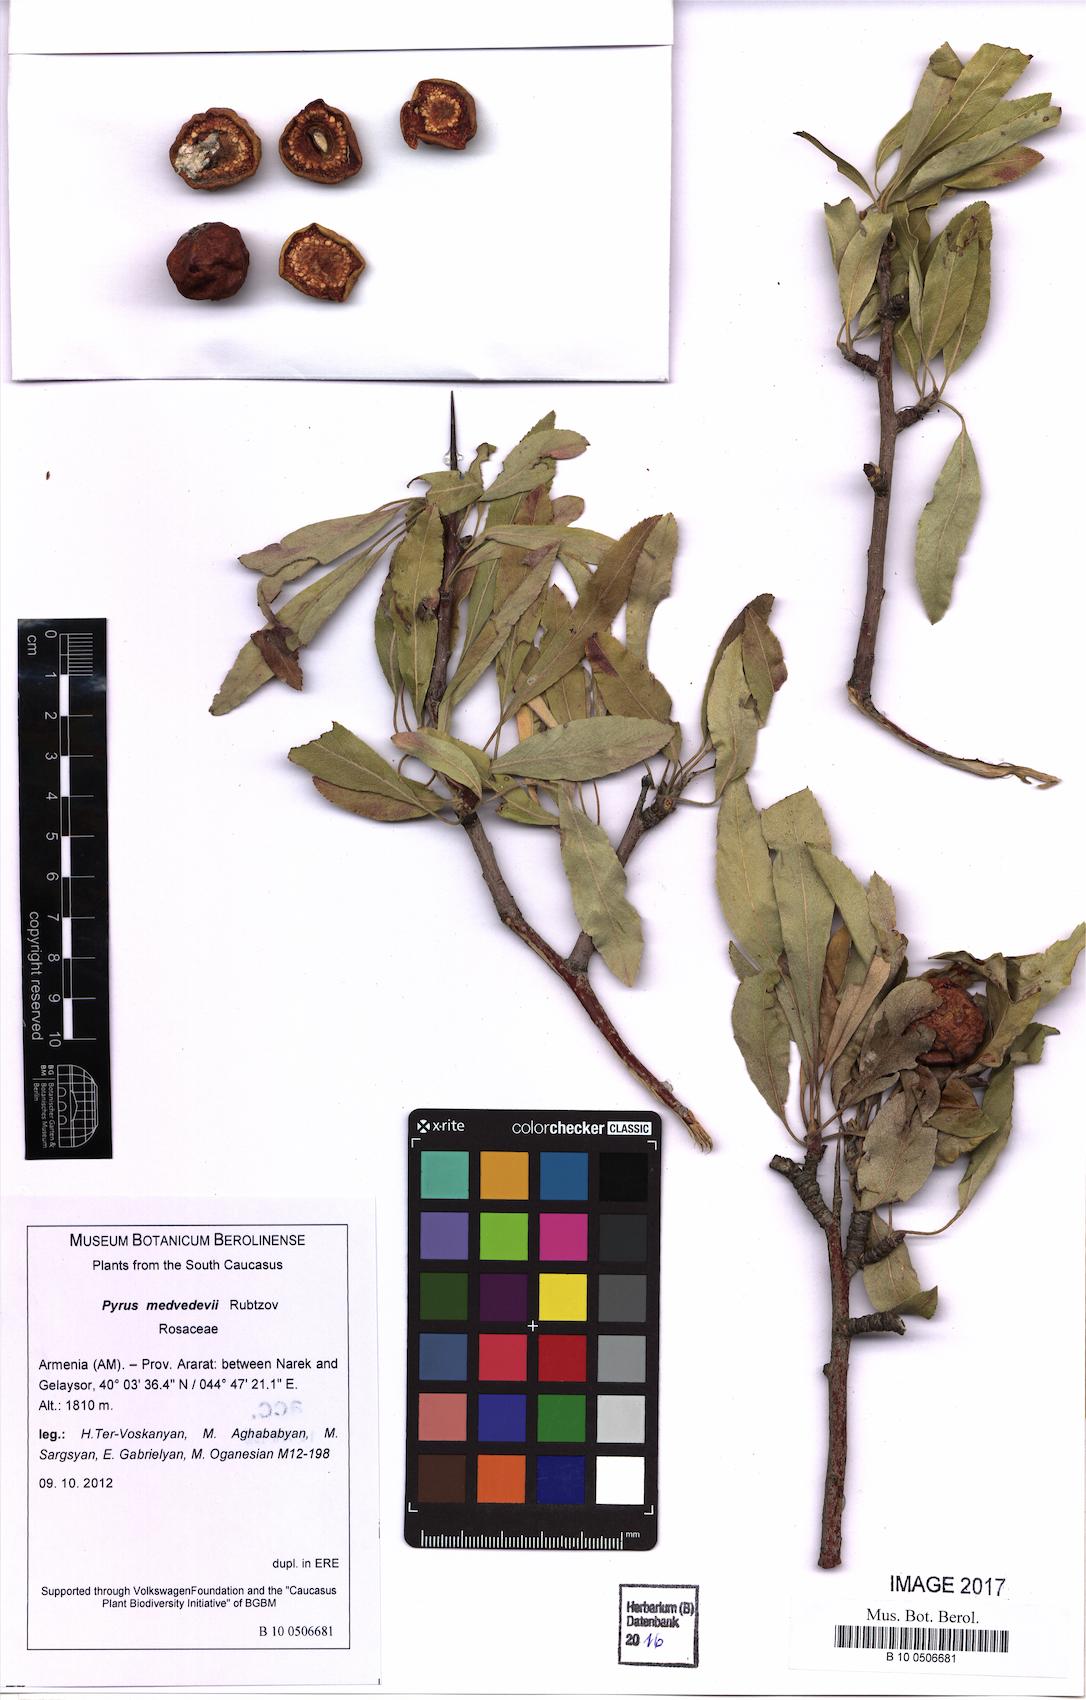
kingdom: Plantae
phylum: Tracheophyta
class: Magnoliopsida
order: Rosales
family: Rosaceae
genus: Pyrus
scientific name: Pyrus medvedevii
